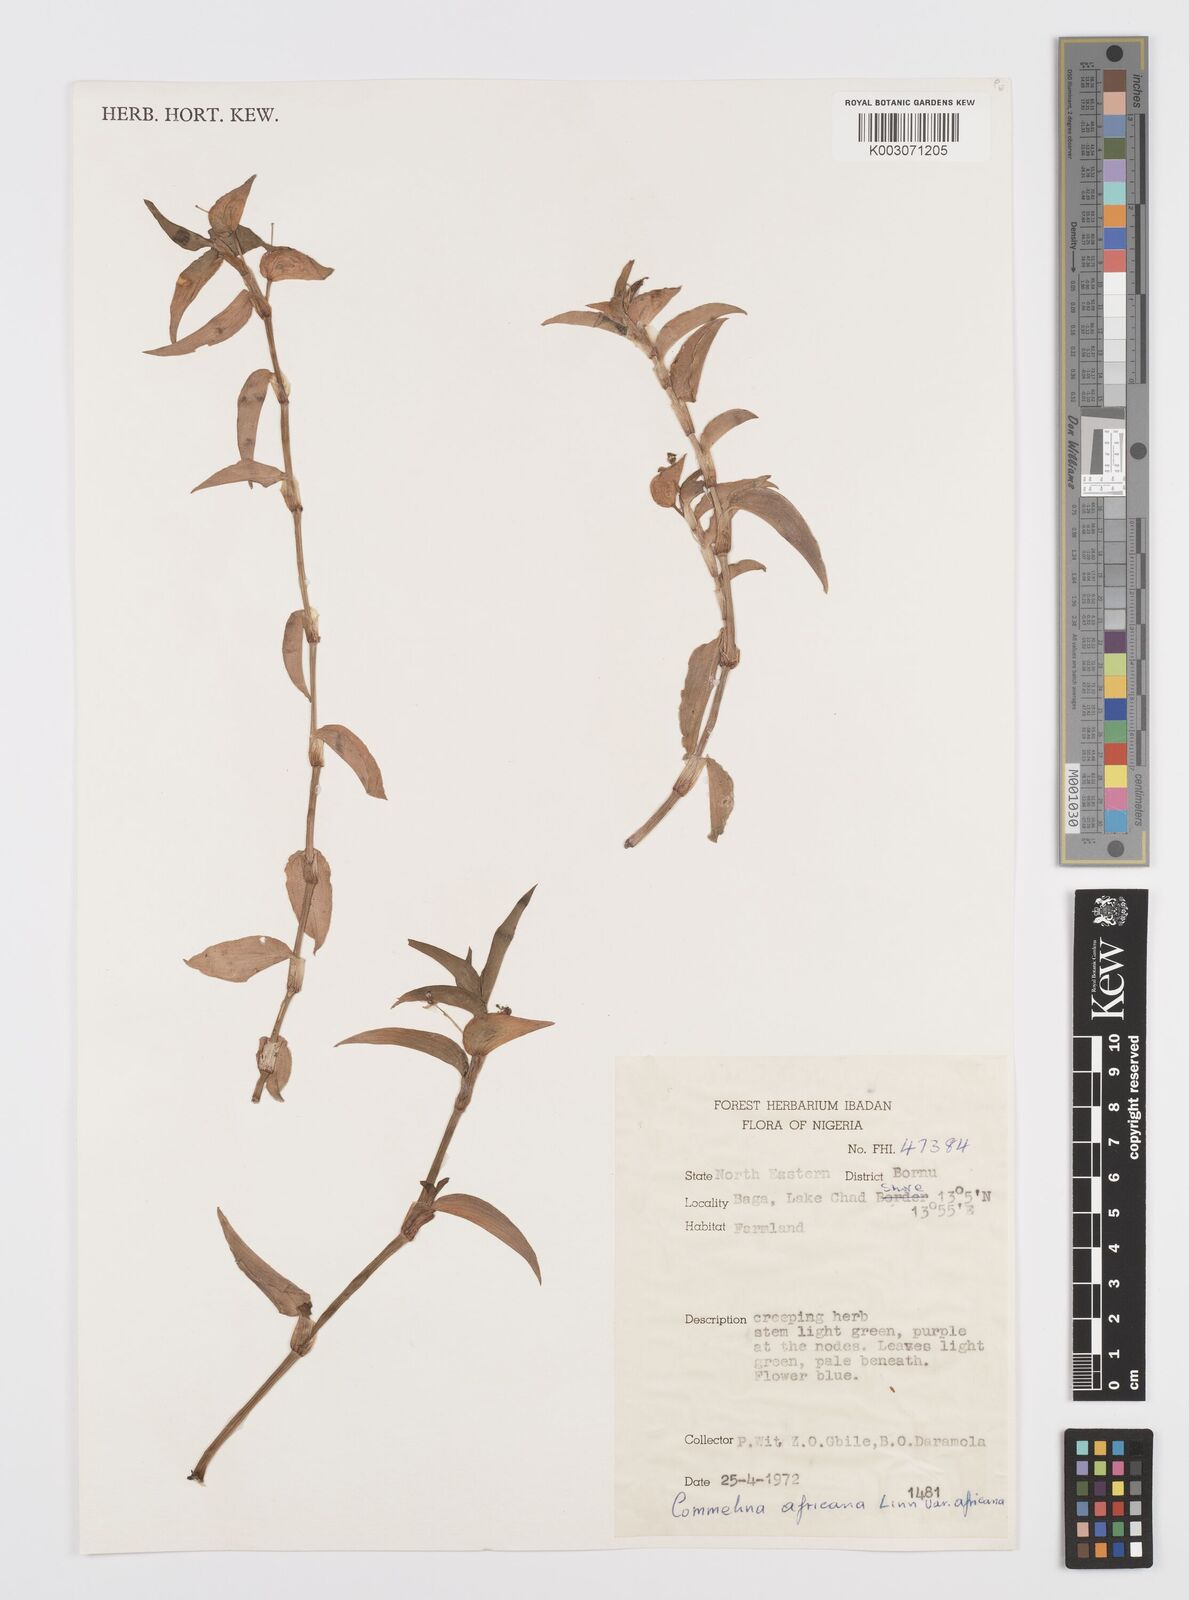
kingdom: Plantae
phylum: Tracheophyta
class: Liliopsida
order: Commelinales
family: Commelinaceae
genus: Commelina
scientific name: Commelina diffusa
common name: Climbing dayflower
